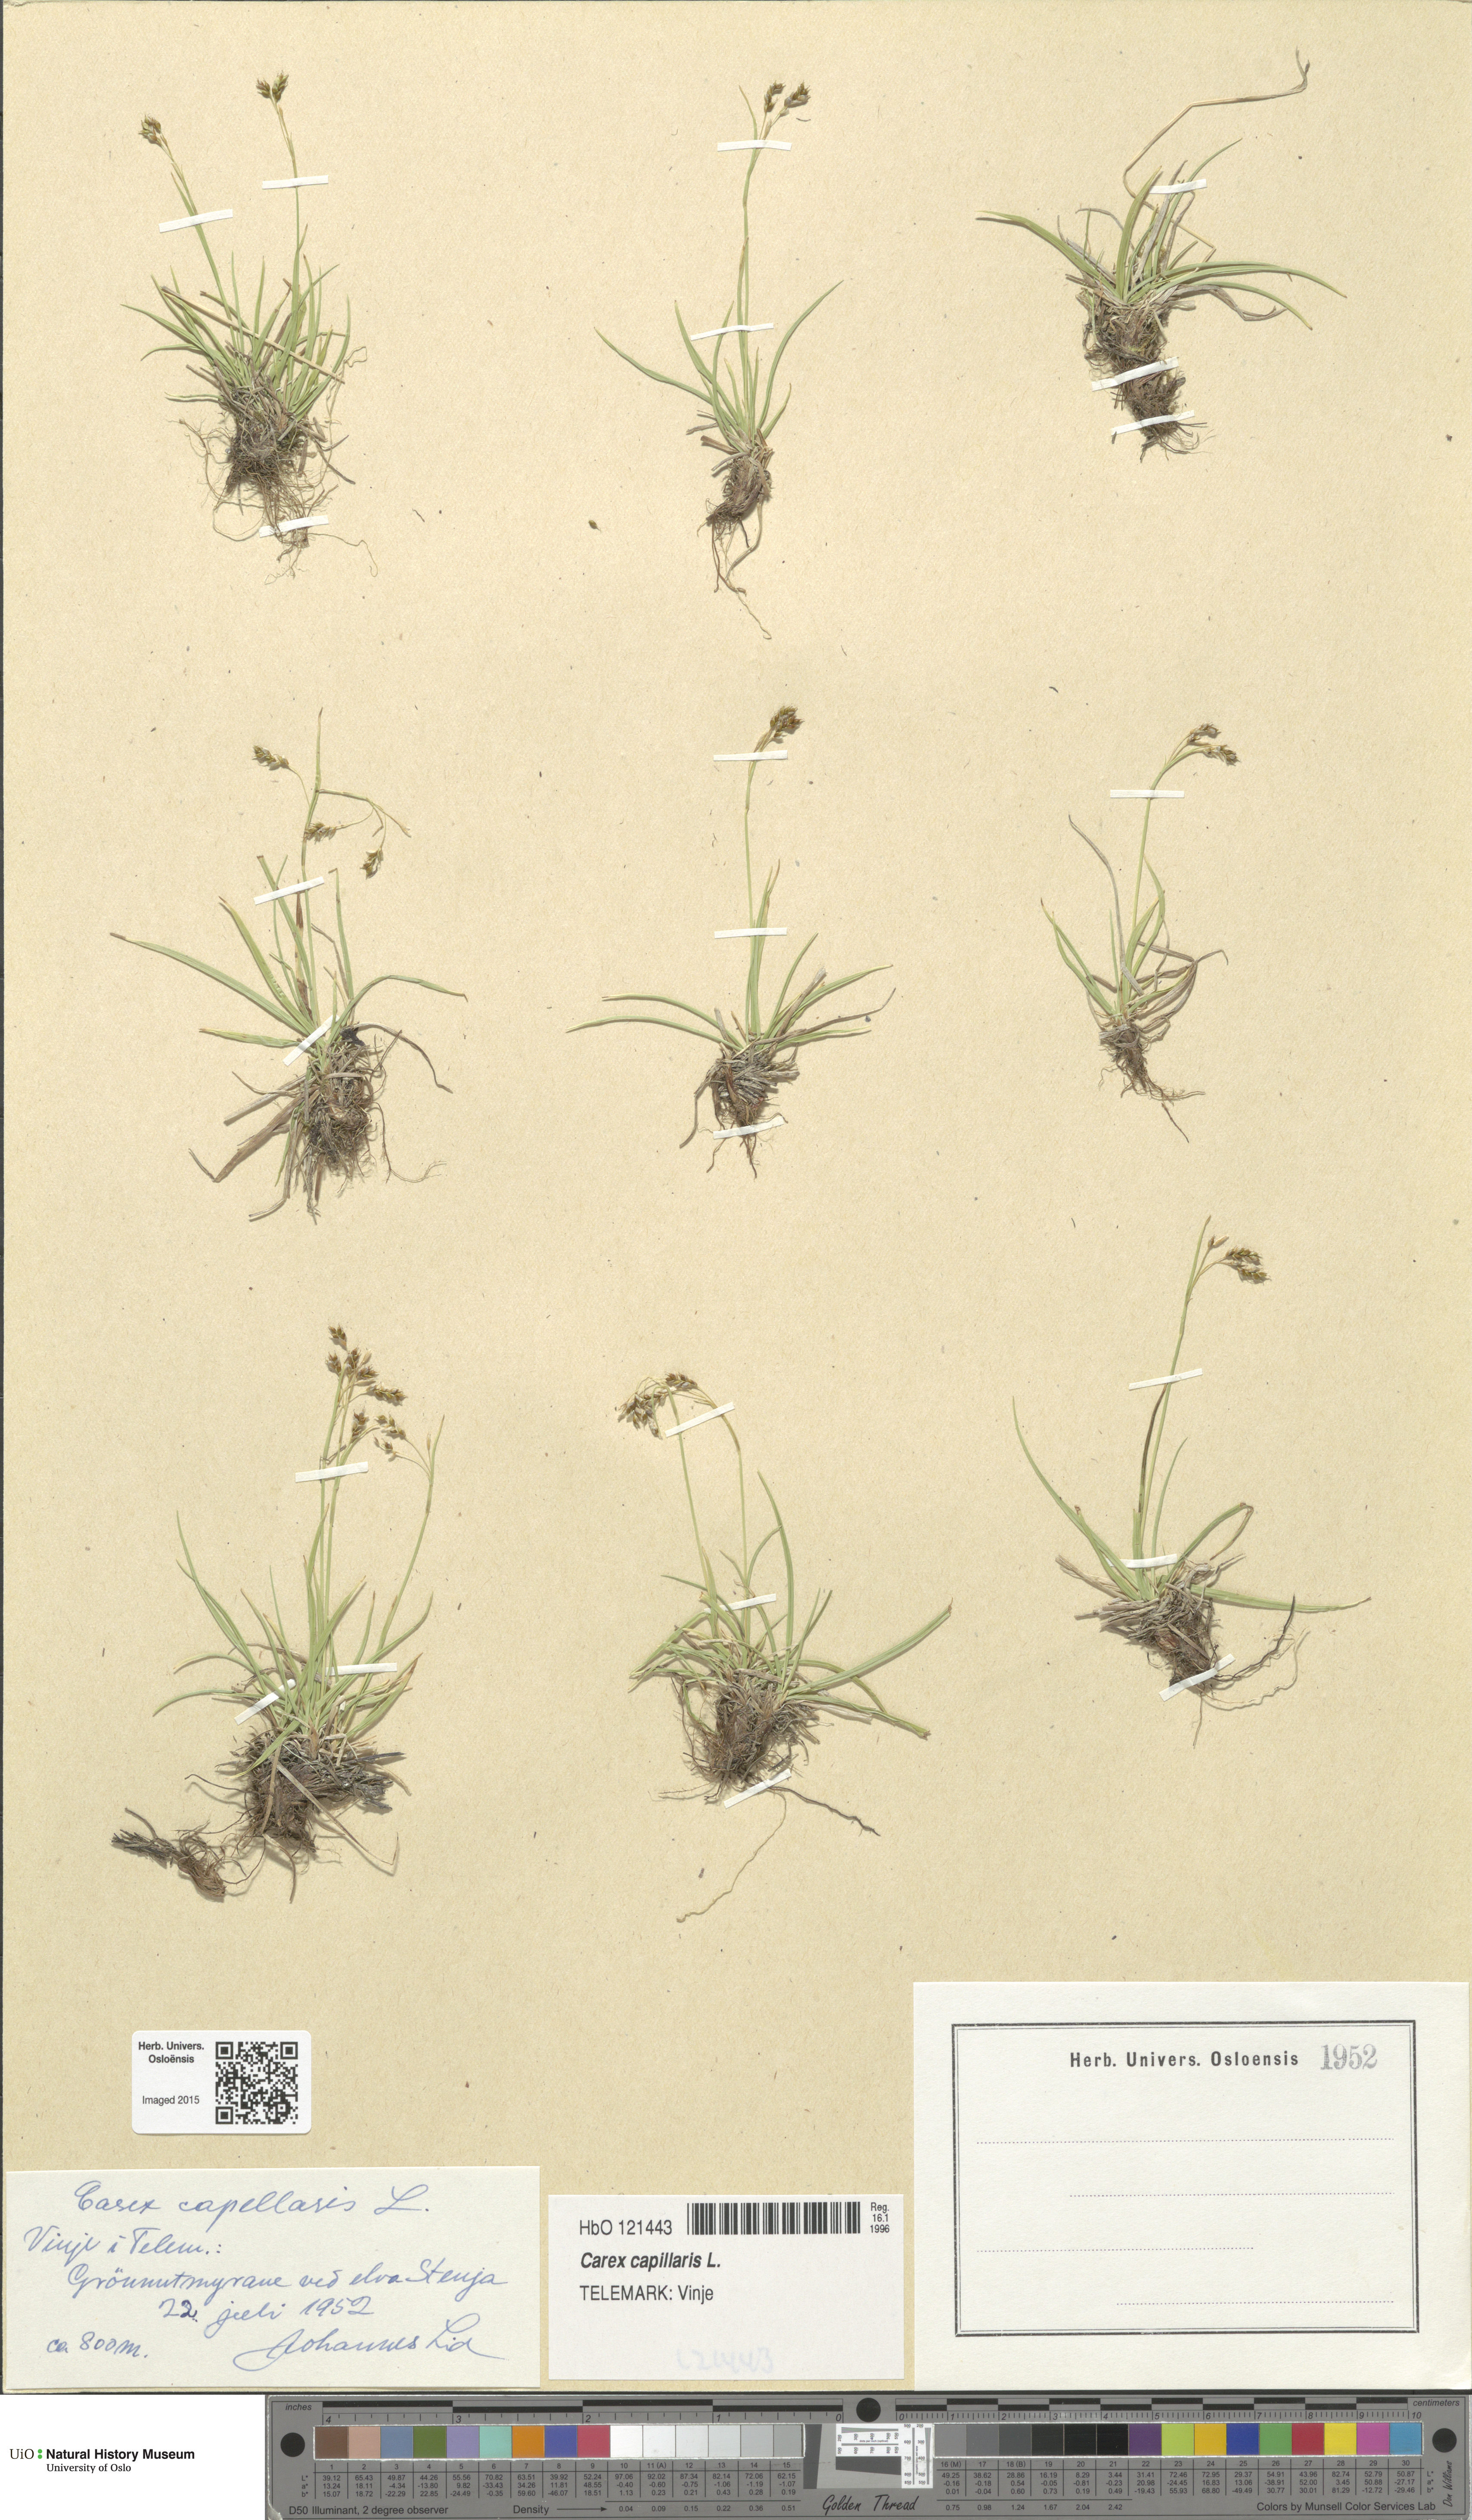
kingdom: Plantae
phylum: Tracheophyta
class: Liliopsida
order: Poales
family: Cyperaceae
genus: Carex
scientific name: Carex capillaris
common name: Hair sedge
